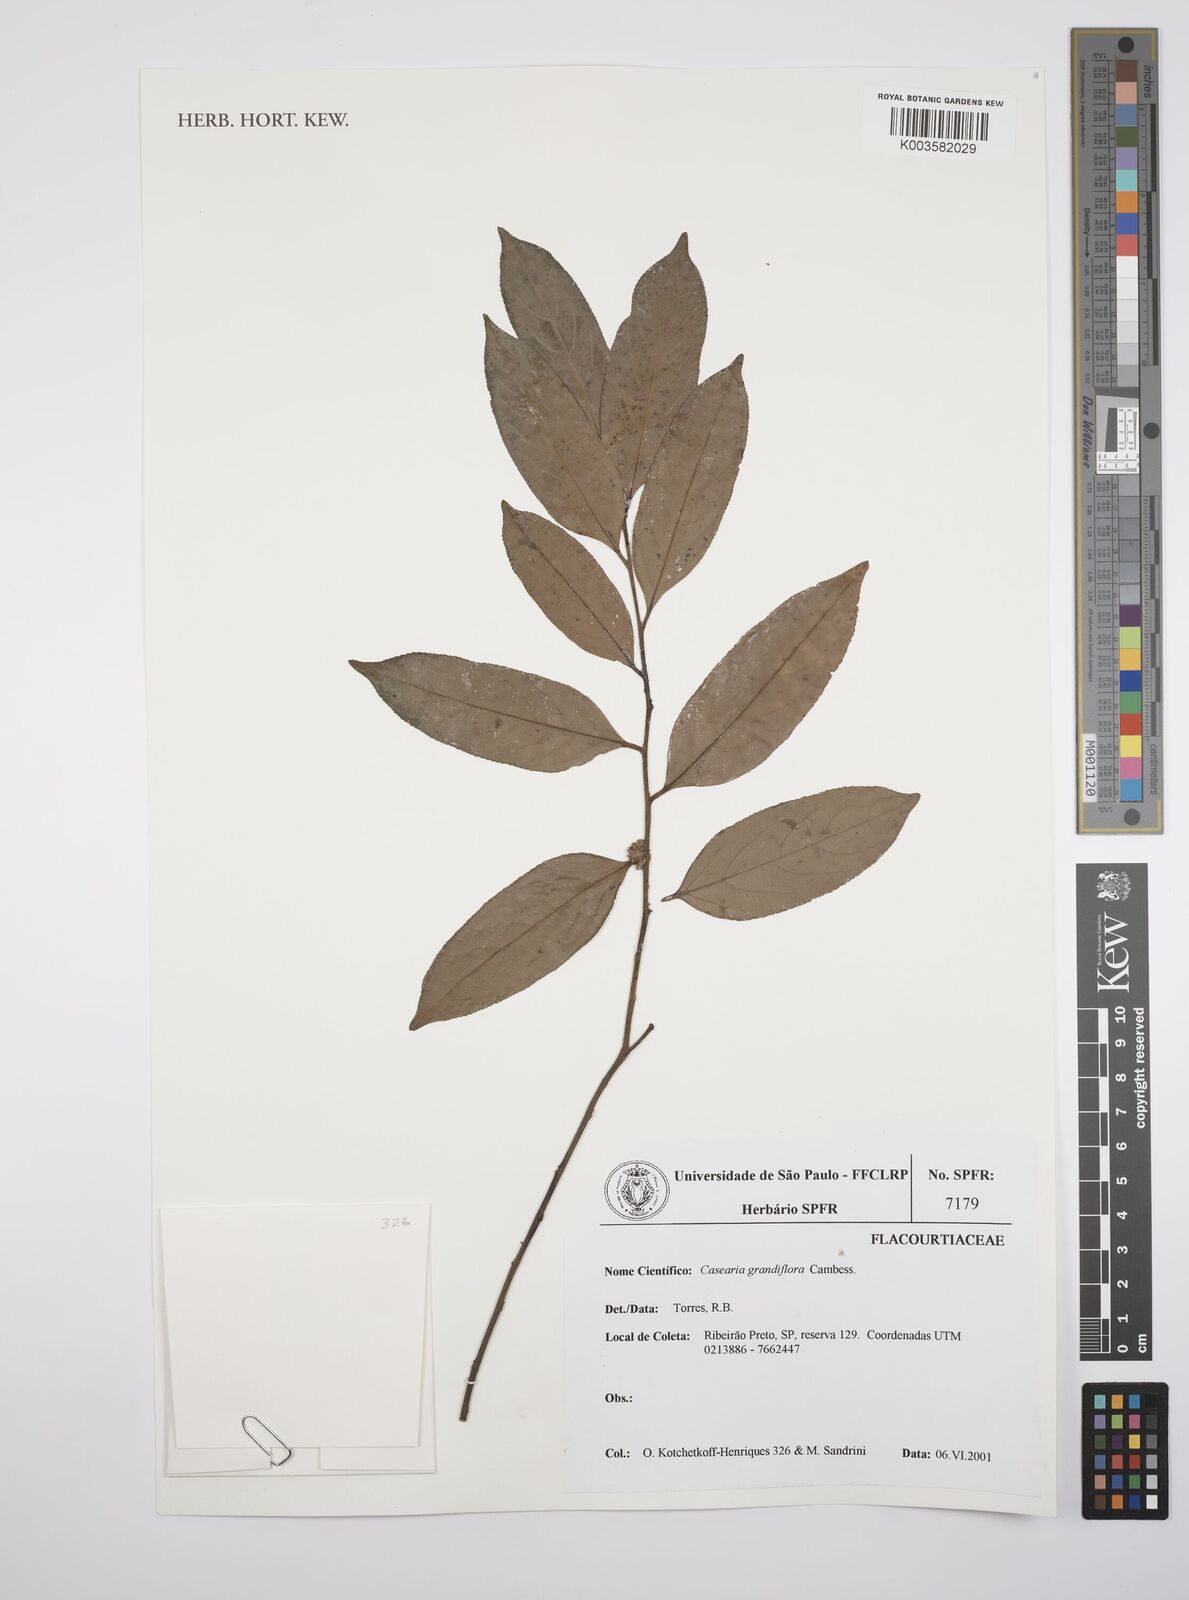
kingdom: Plantae
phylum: Tracheophyta
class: Magnoliopsida
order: Malpighiales
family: Salicaceae
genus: Casearia
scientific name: Casearia grandiflora
